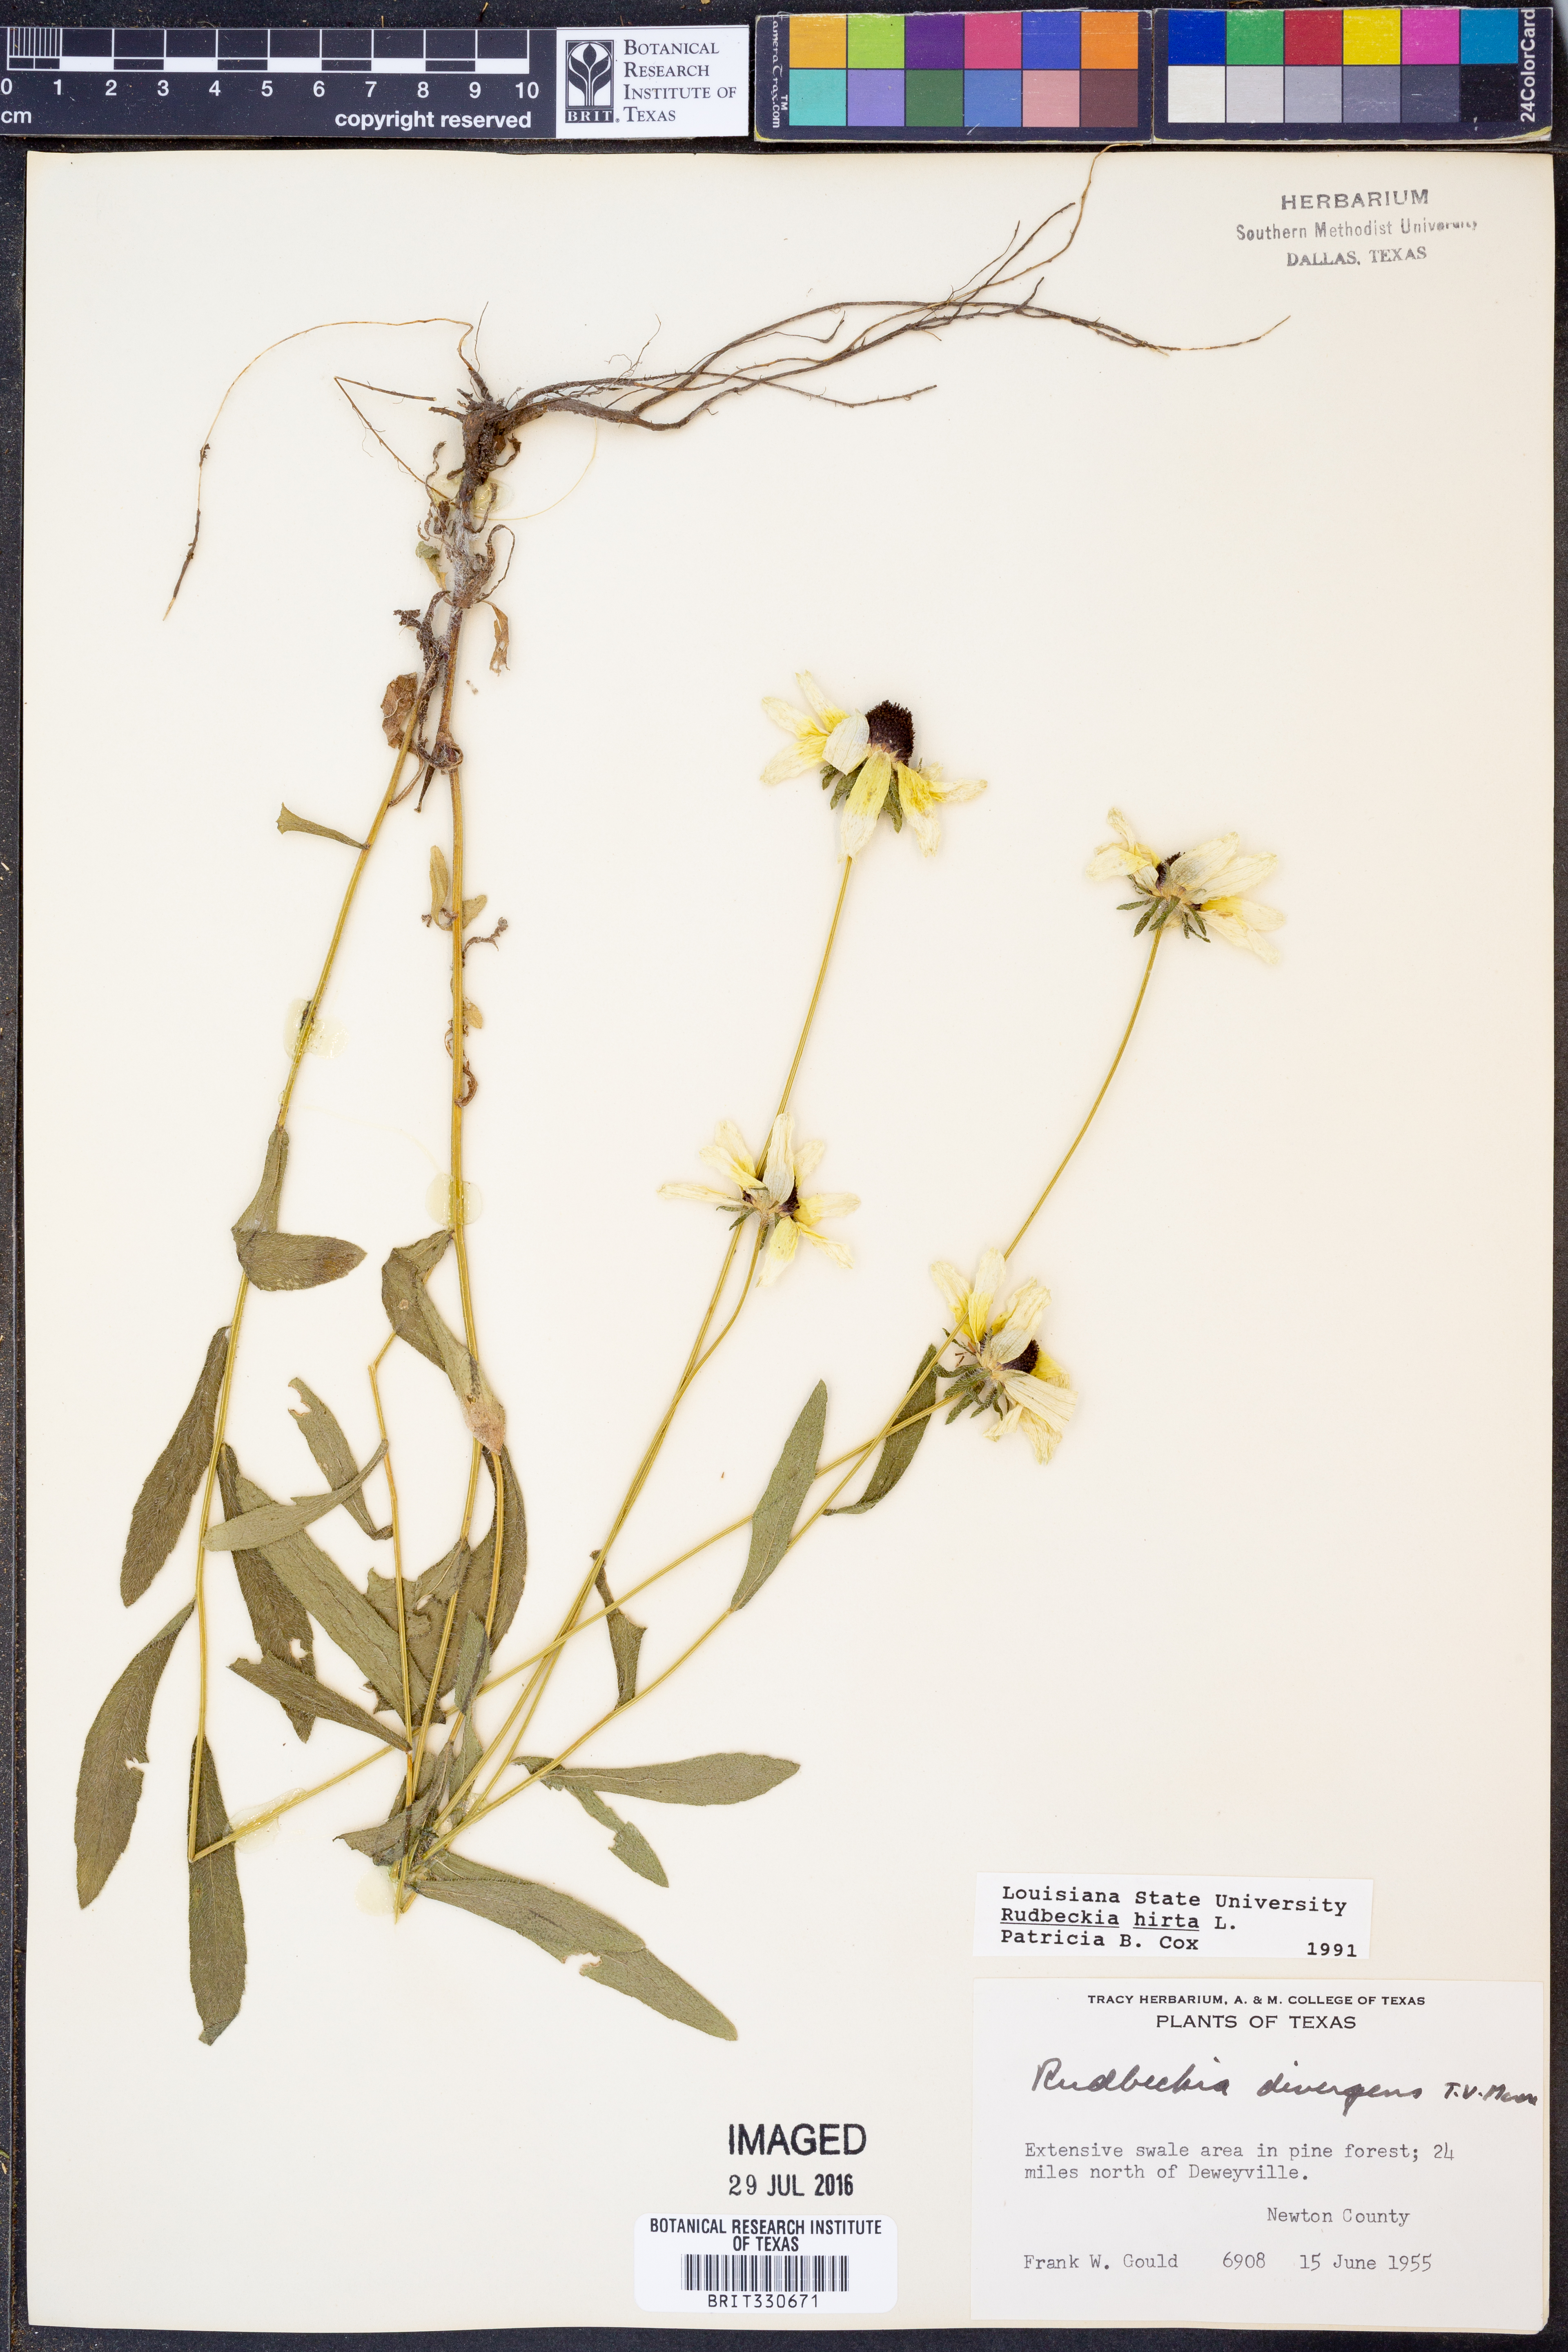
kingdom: Plantae
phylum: Tracheophyta
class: Magnoliopsida
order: Asterales
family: Asteraceae
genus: Rudbeckia
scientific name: Rudbeckia hirta
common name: Black-eyed-susan
